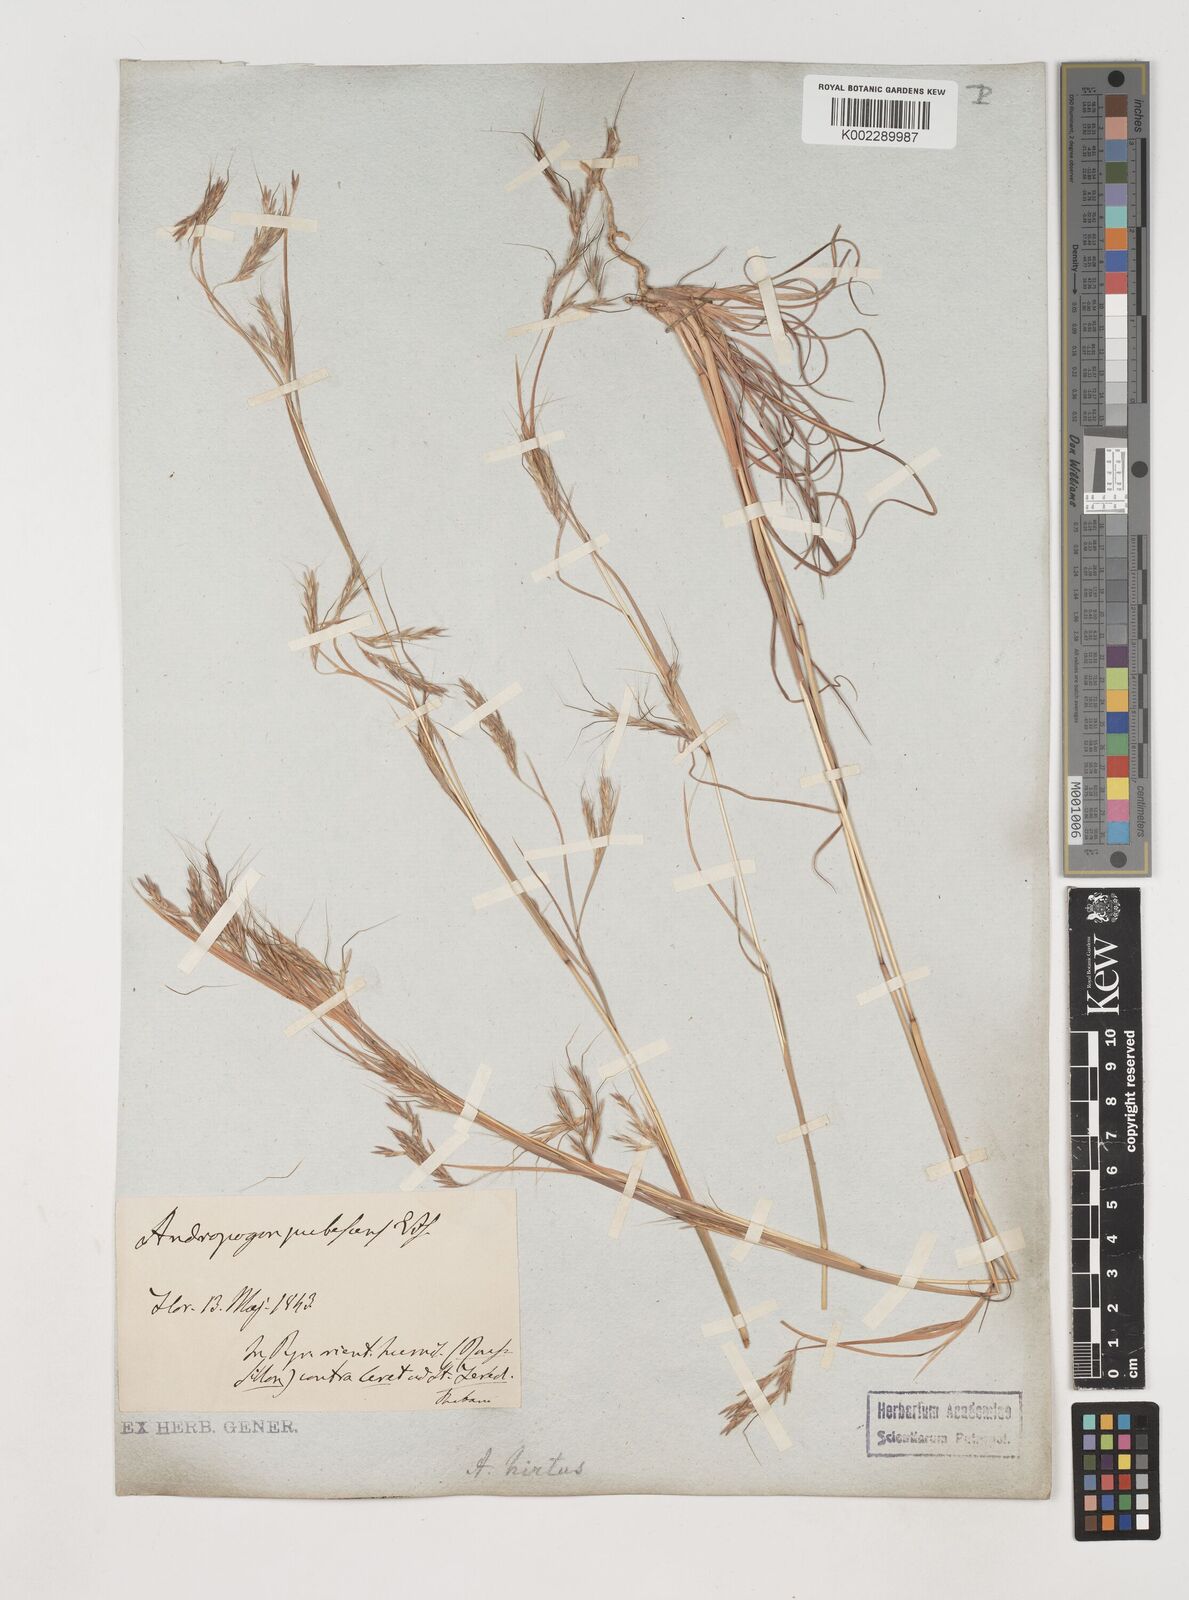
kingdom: Plantae
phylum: Tracheophyta
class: Liliopsida
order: Poales
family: Poaceae
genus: Hyparrhenia
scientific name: Hyparrhenia hirta
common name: Thatching grass
